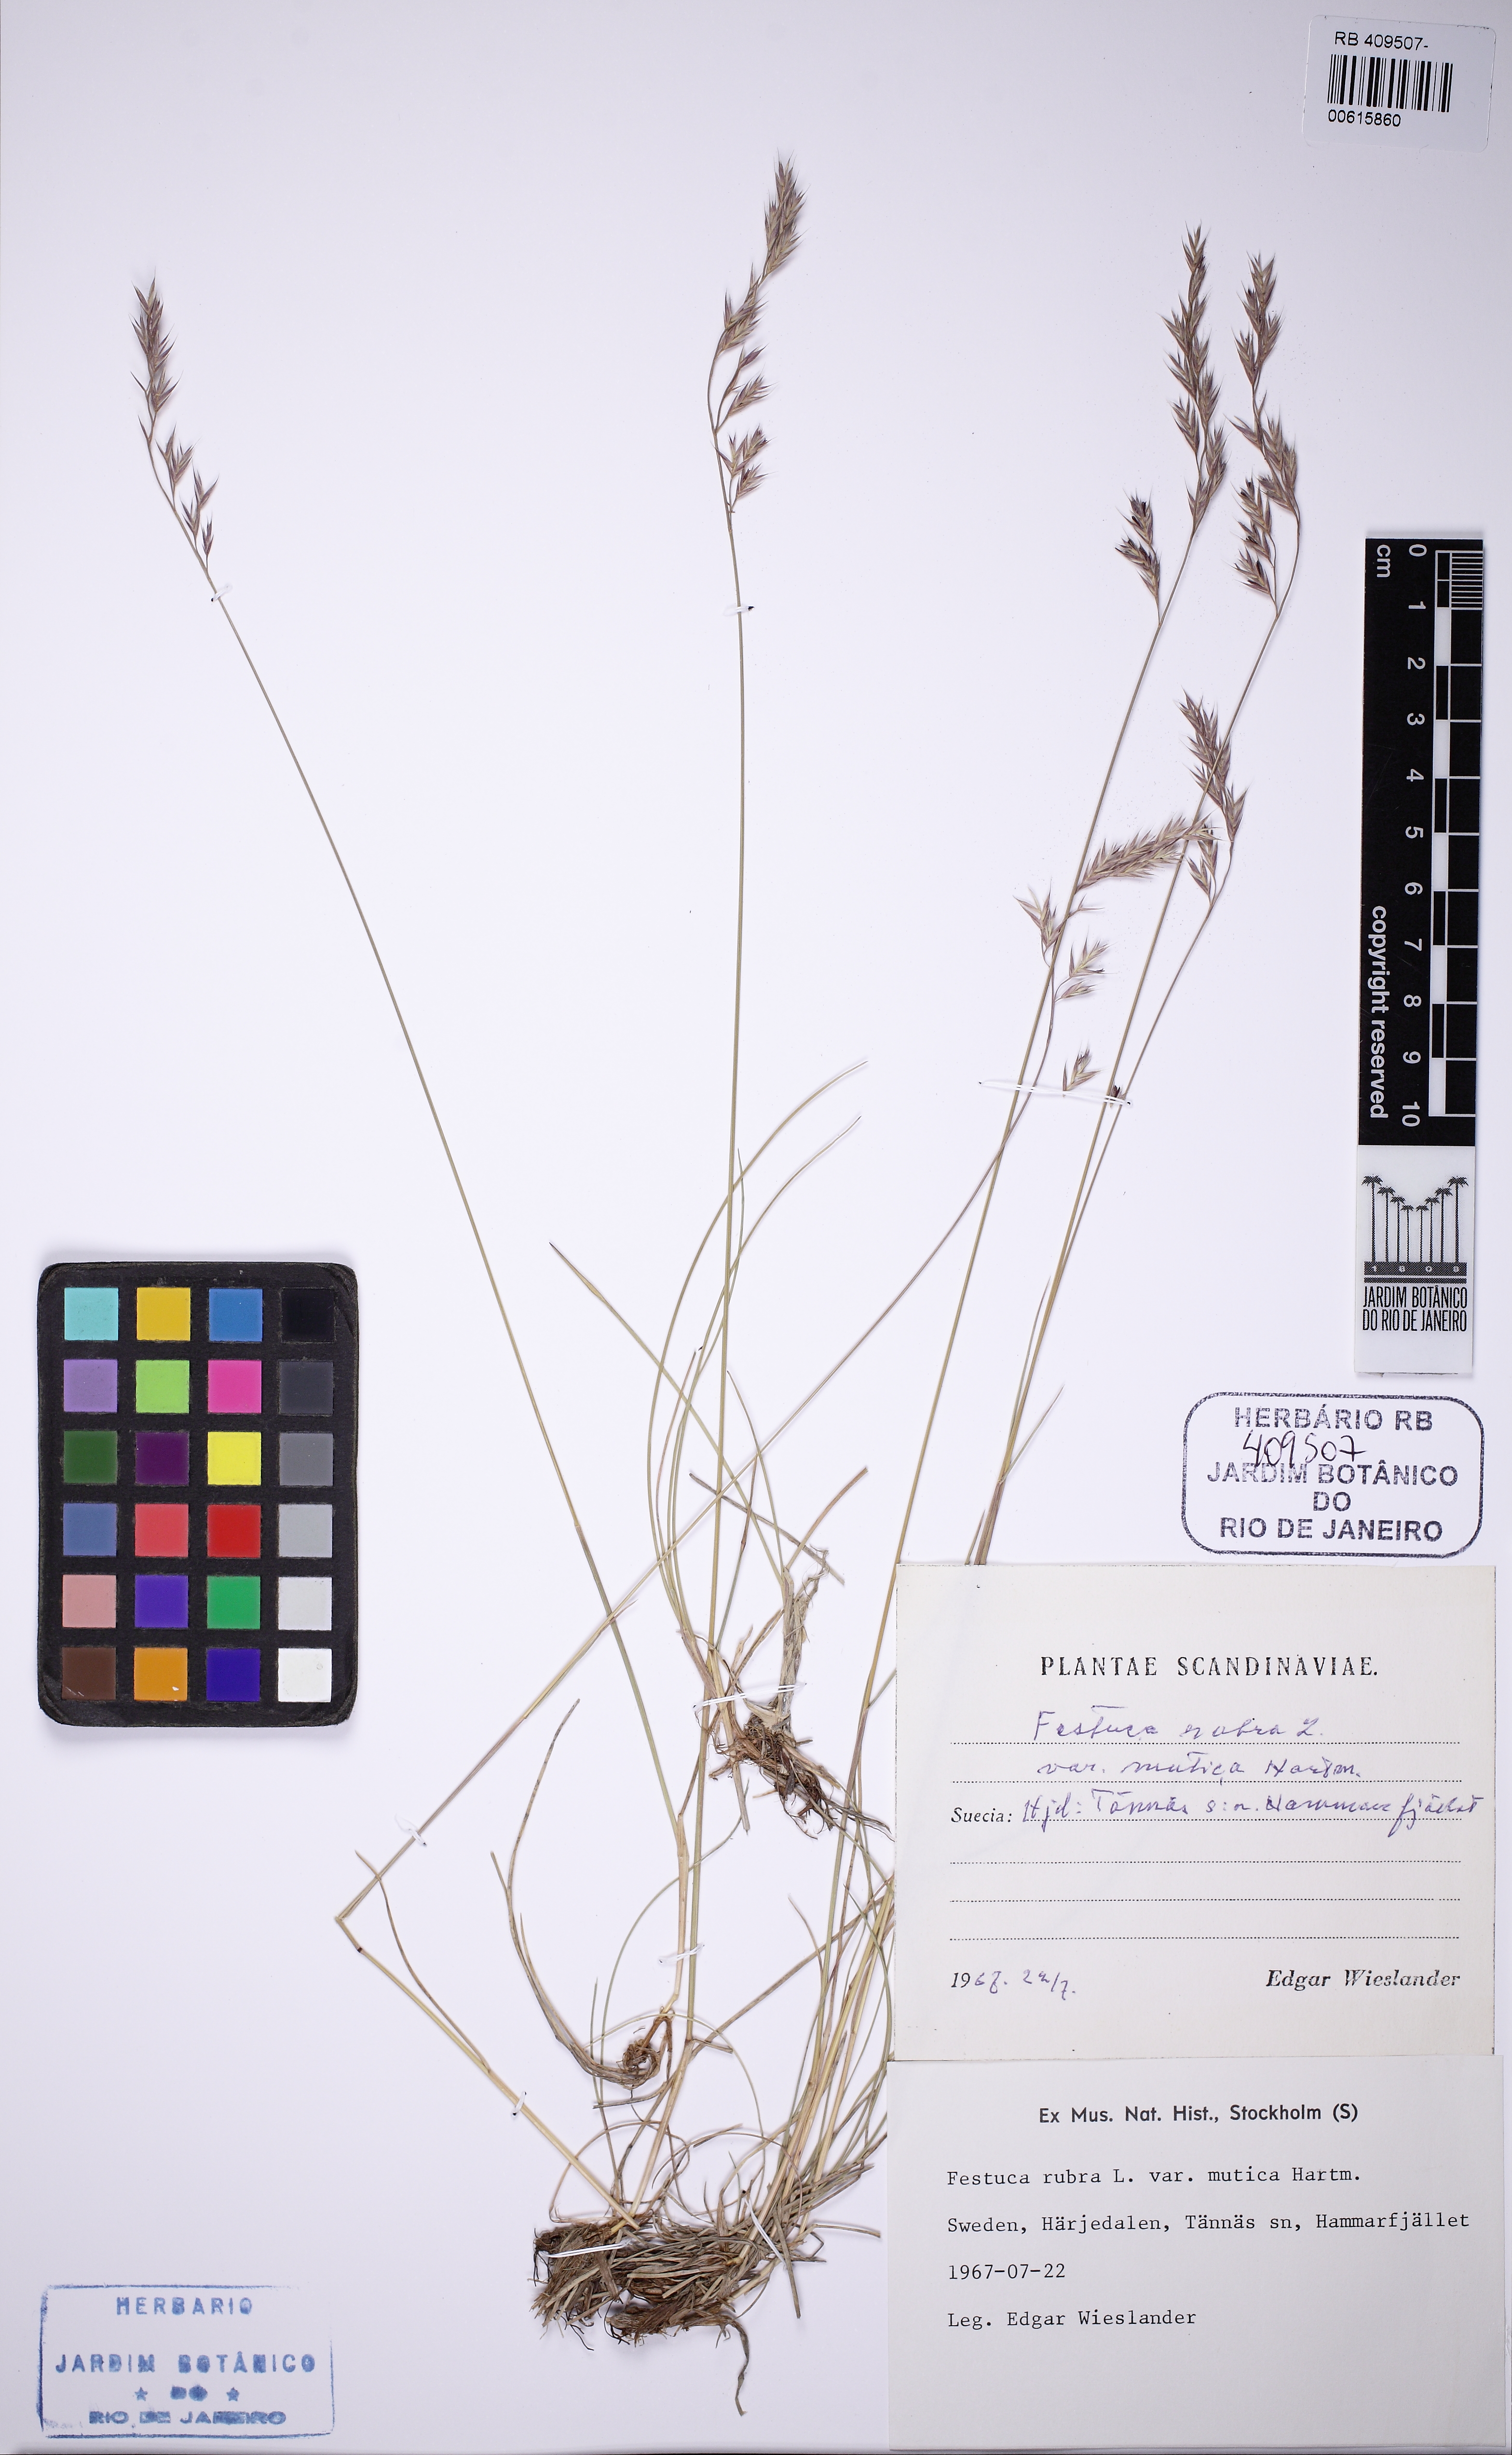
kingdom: Plantae
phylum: Tracheophyta
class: Liliopsida
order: Poales
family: Poaceae
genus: Festuca
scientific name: Festuca richardsonii
